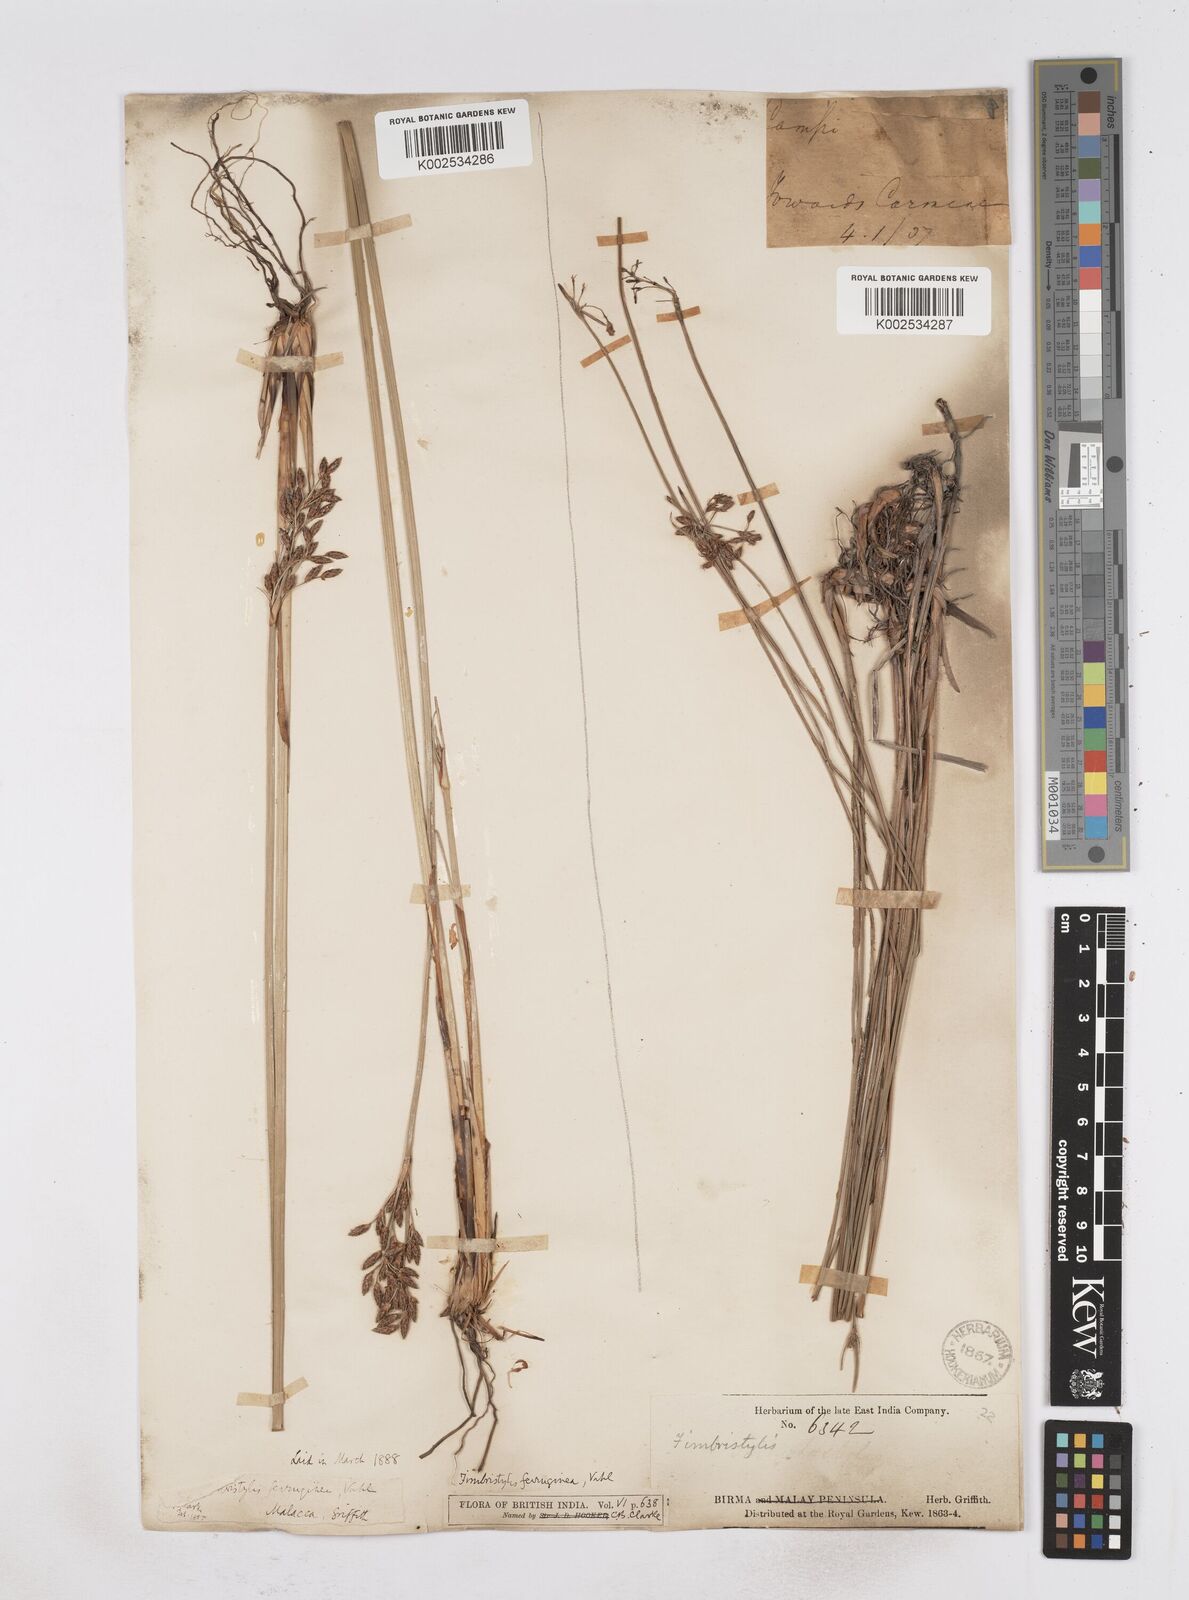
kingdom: Plantae
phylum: Tracheophyta
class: Liliopsida
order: Poales
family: Cyperaceae
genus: Fimbristylis
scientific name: Fimbristylis ferruginea
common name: West indian fimbry
